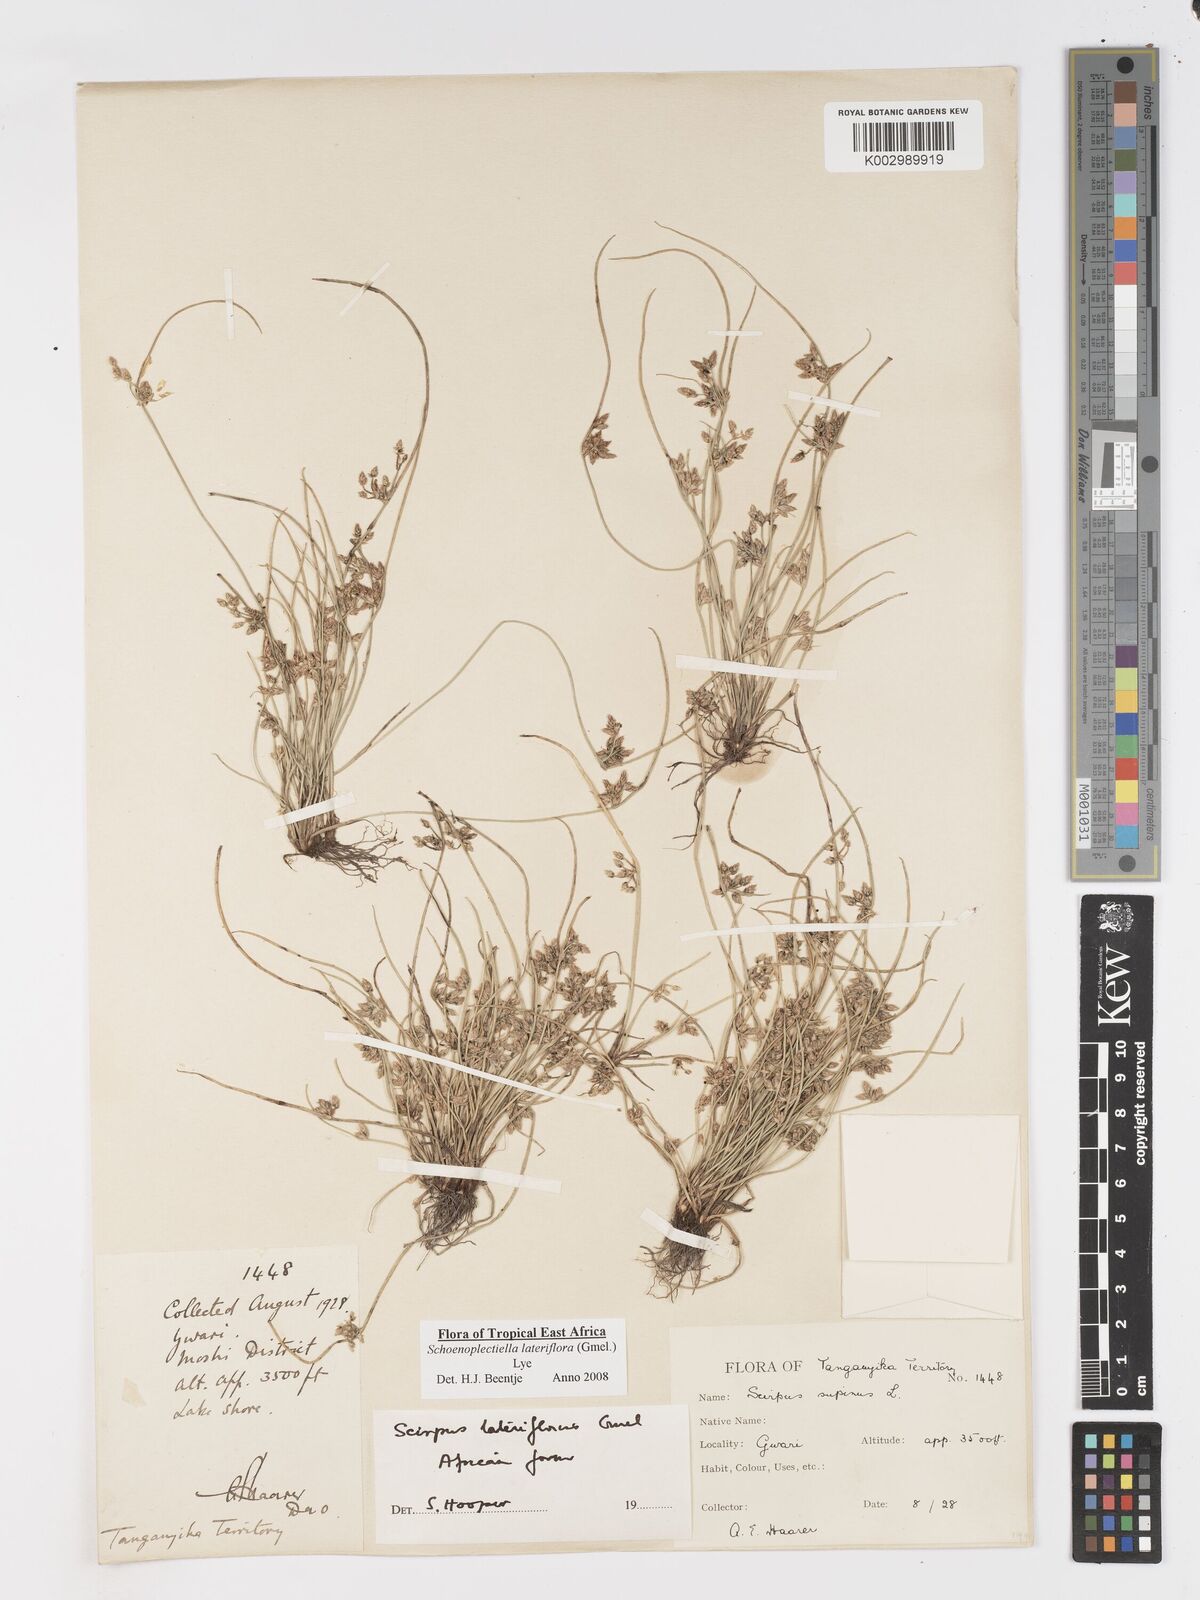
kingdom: Plantae
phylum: Tracheophyta
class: Liliopsida
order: Poales
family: Cyperaceae
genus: Schoenoplectiella
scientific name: Schoenoplectiella lateriflora
